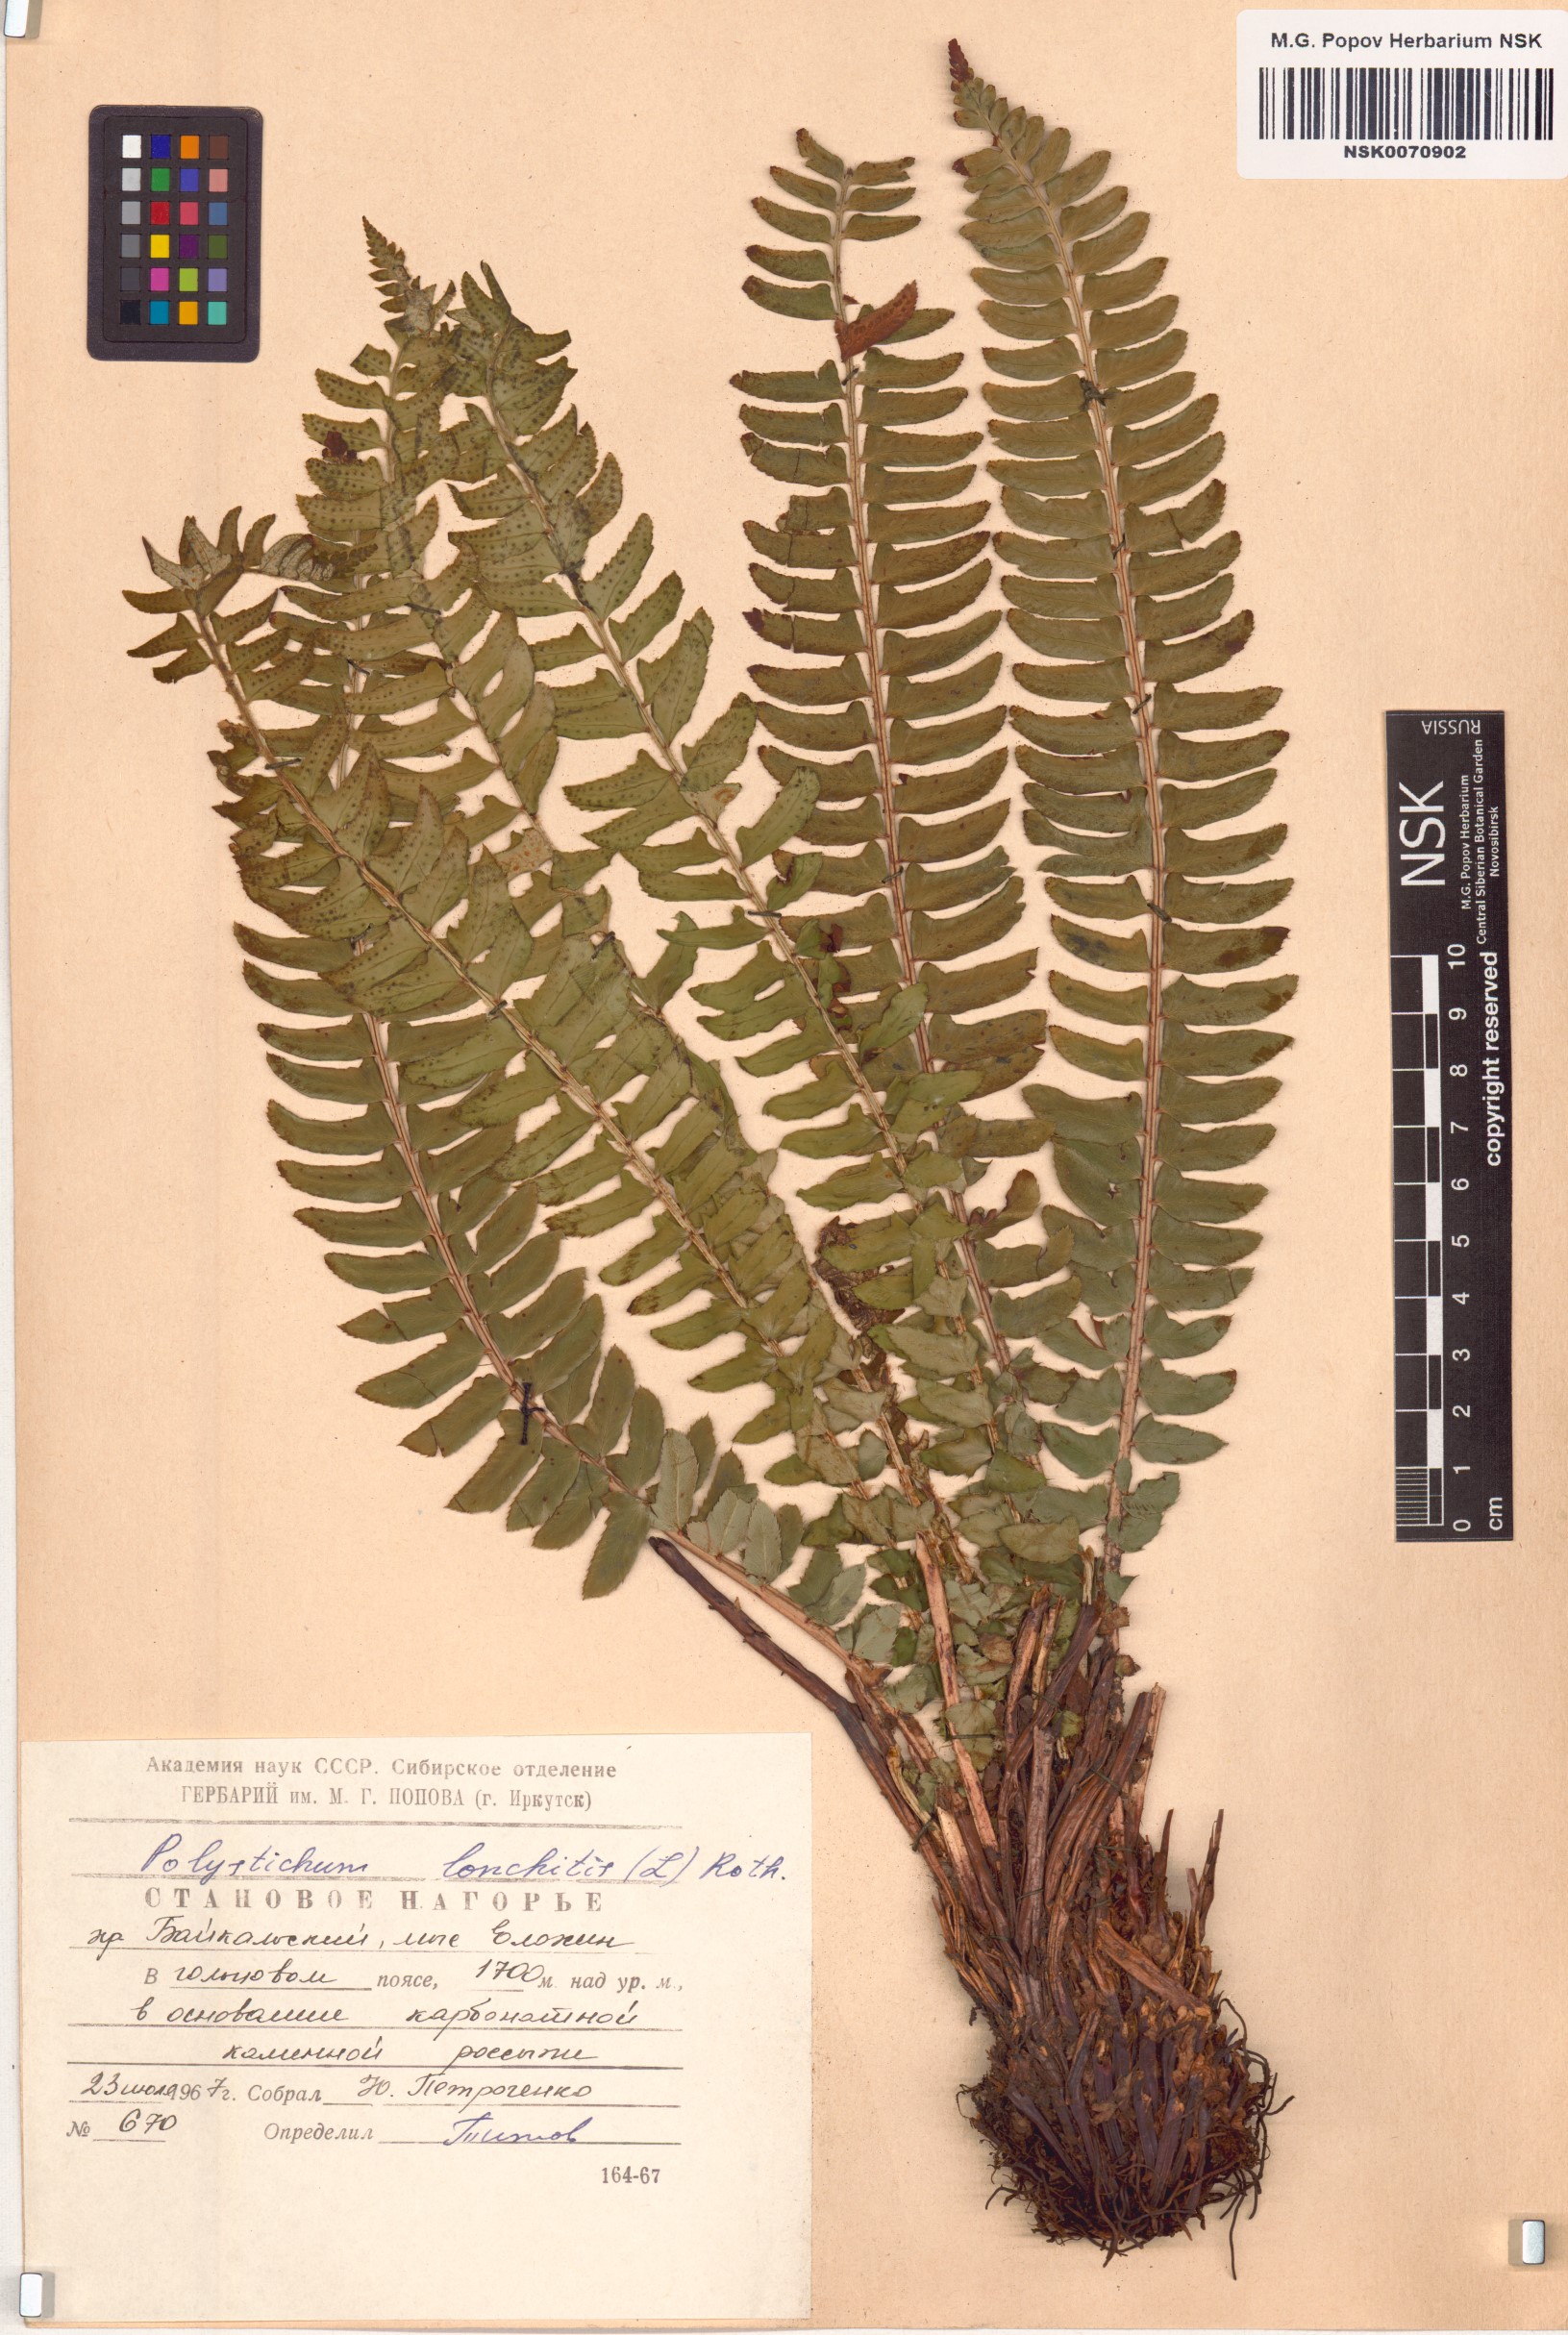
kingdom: Plantae
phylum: Tracheophyta
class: Polypodiopsida
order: Polypodiales
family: Dryopteridaceae
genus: Polystichum
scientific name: Polystichum lonchitis
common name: Holly fern
